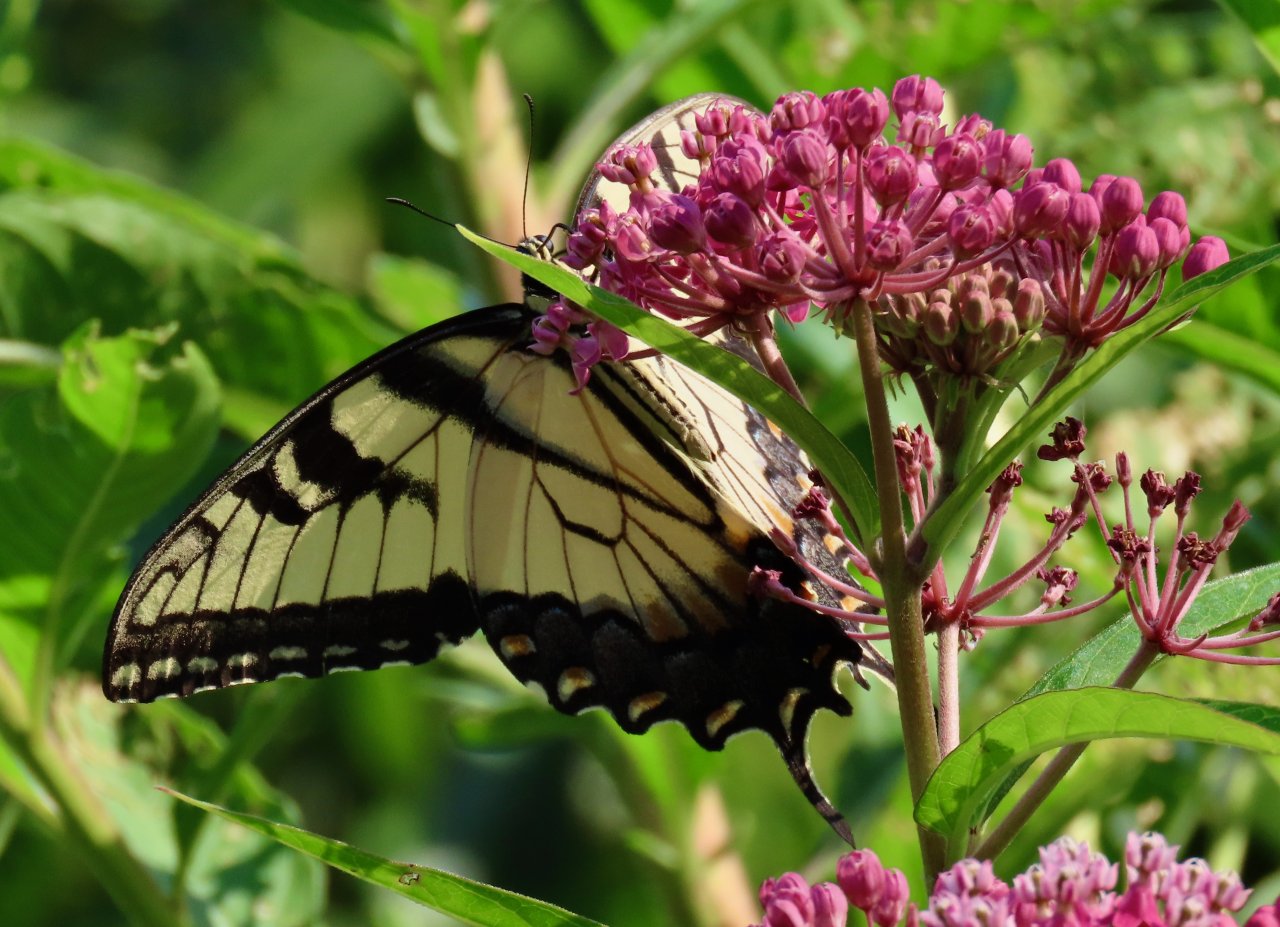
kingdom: Animalia
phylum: Arthropoda
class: Insecta
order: Lepidoptera
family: Papilionidae
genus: Pterourus
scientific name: Pterourus glaucus
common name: Eastern Tiger Swallowtail
